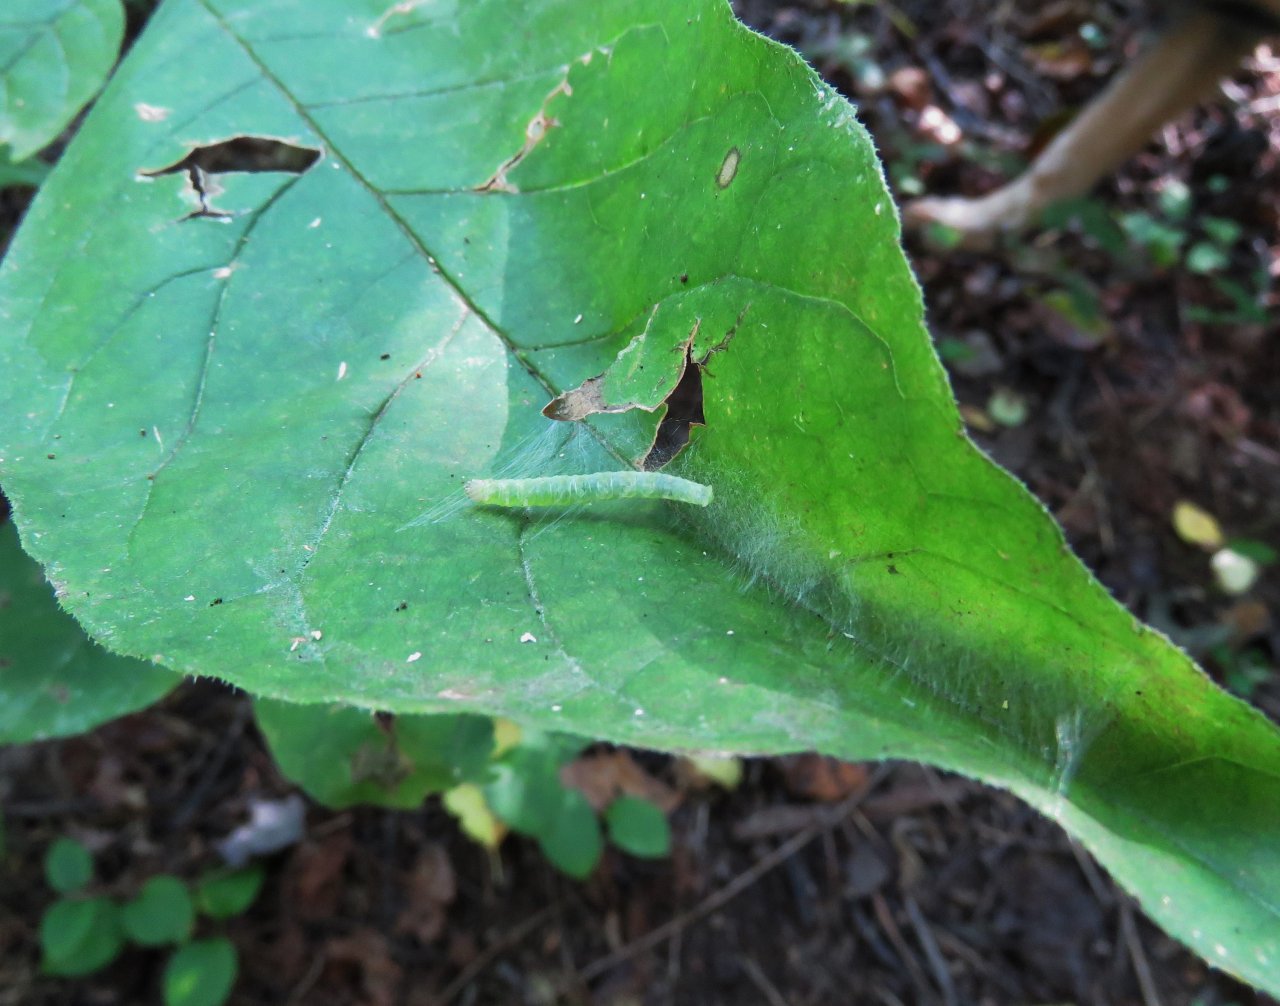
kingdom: Animalia
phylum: Arthropoda
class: Insecta
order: Lepidoptera
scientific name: Lepidoptera
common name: Butterflies
